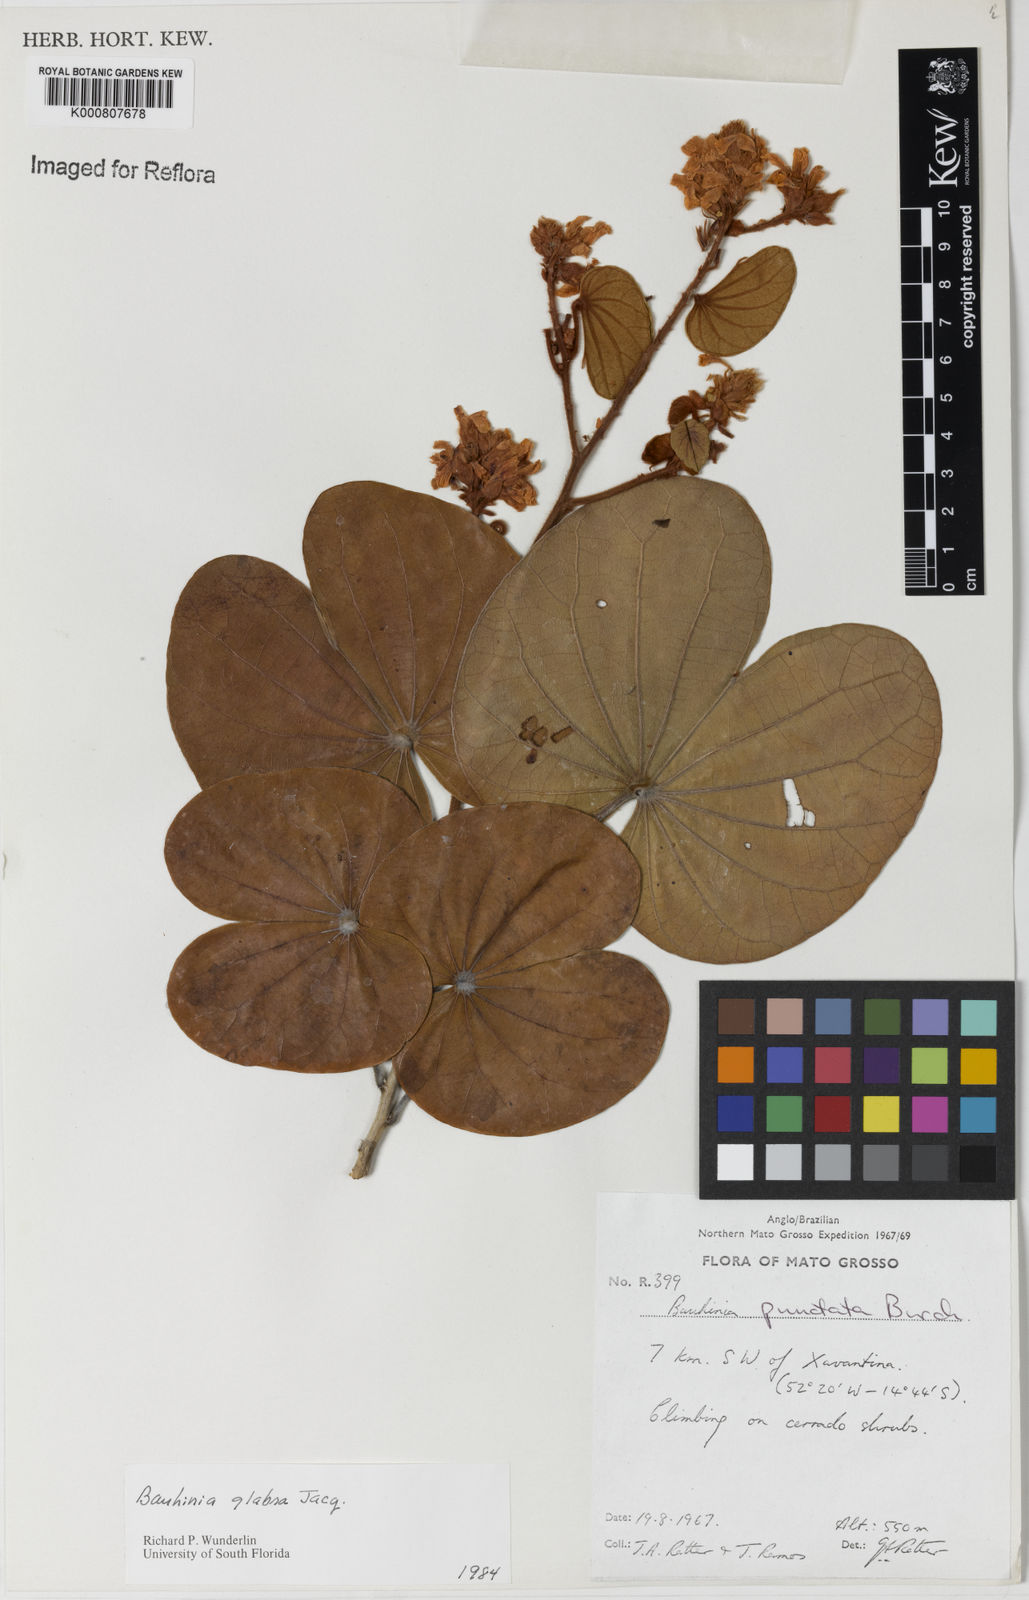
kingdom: Plantae
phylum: Tracheophyta
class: Magnoliopsida
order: Fabales
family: Fabaceae
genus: Schnella
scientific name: Schnella glabra
